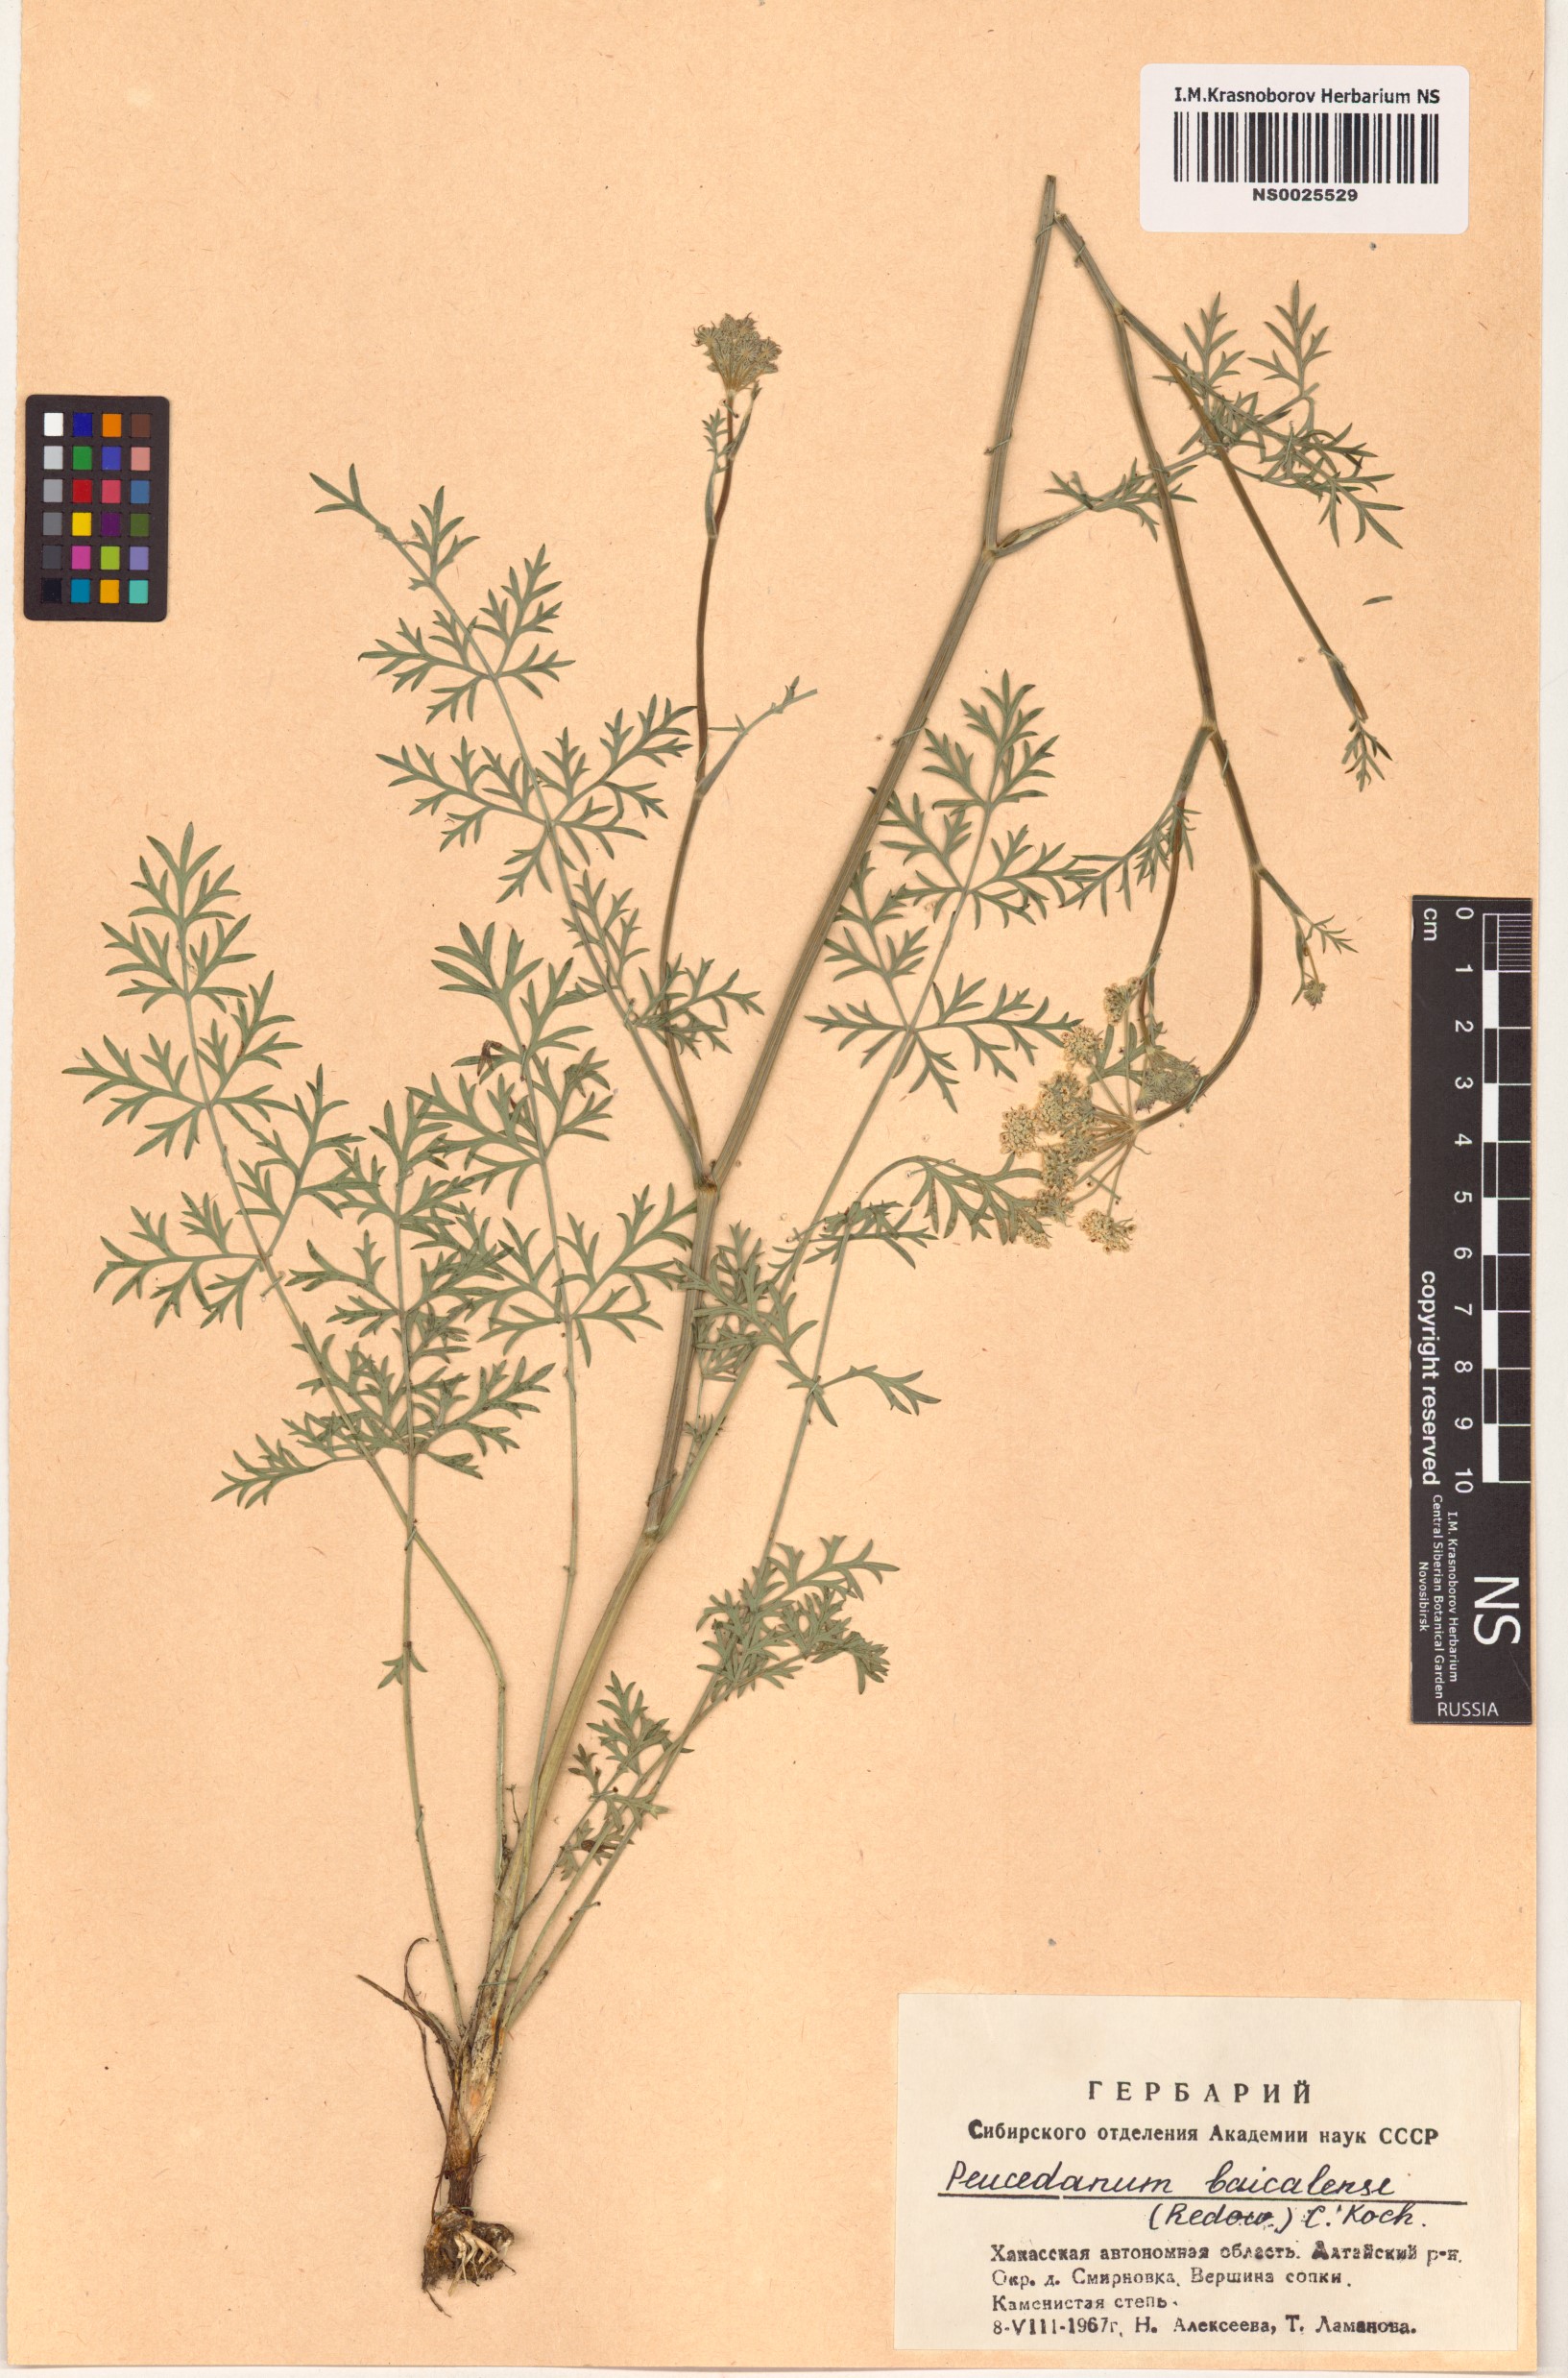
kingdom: Plantae
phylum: Tracheophyta
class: Magnoliopsida
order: Apiales
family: Apiaceae
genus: Kitagawia
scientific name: Kitagawia baicalensis
